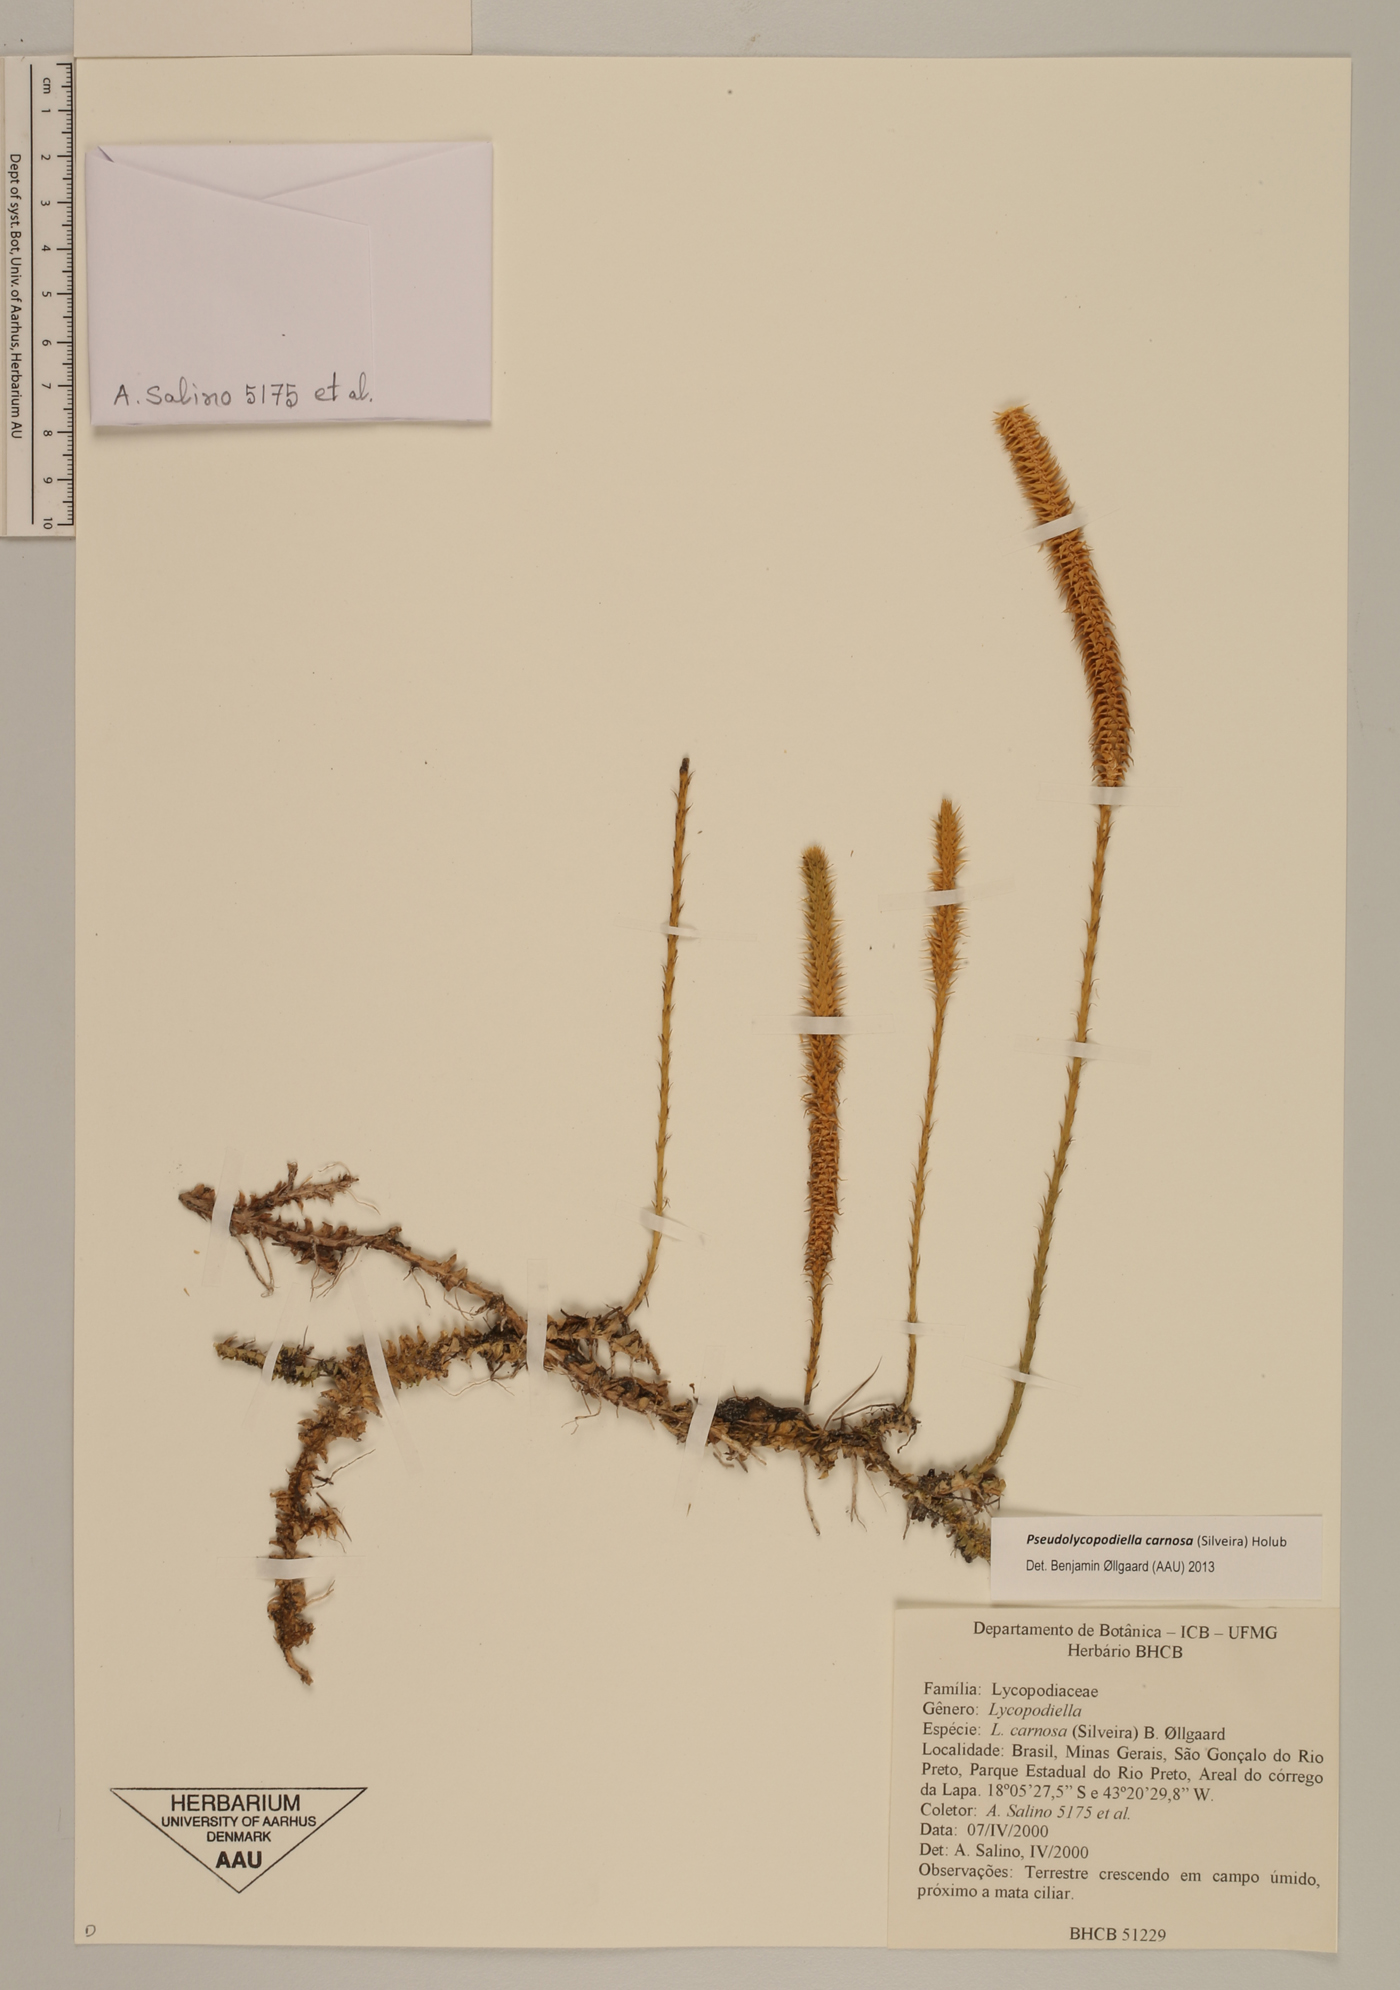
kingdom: Plantae
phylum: Tracheophyta
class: Lycopodiopsida
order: Lycopodiales
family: Lycopodiaceae
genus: Pseudolycopodiella
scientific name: Pseudolycopodiella carnosa
